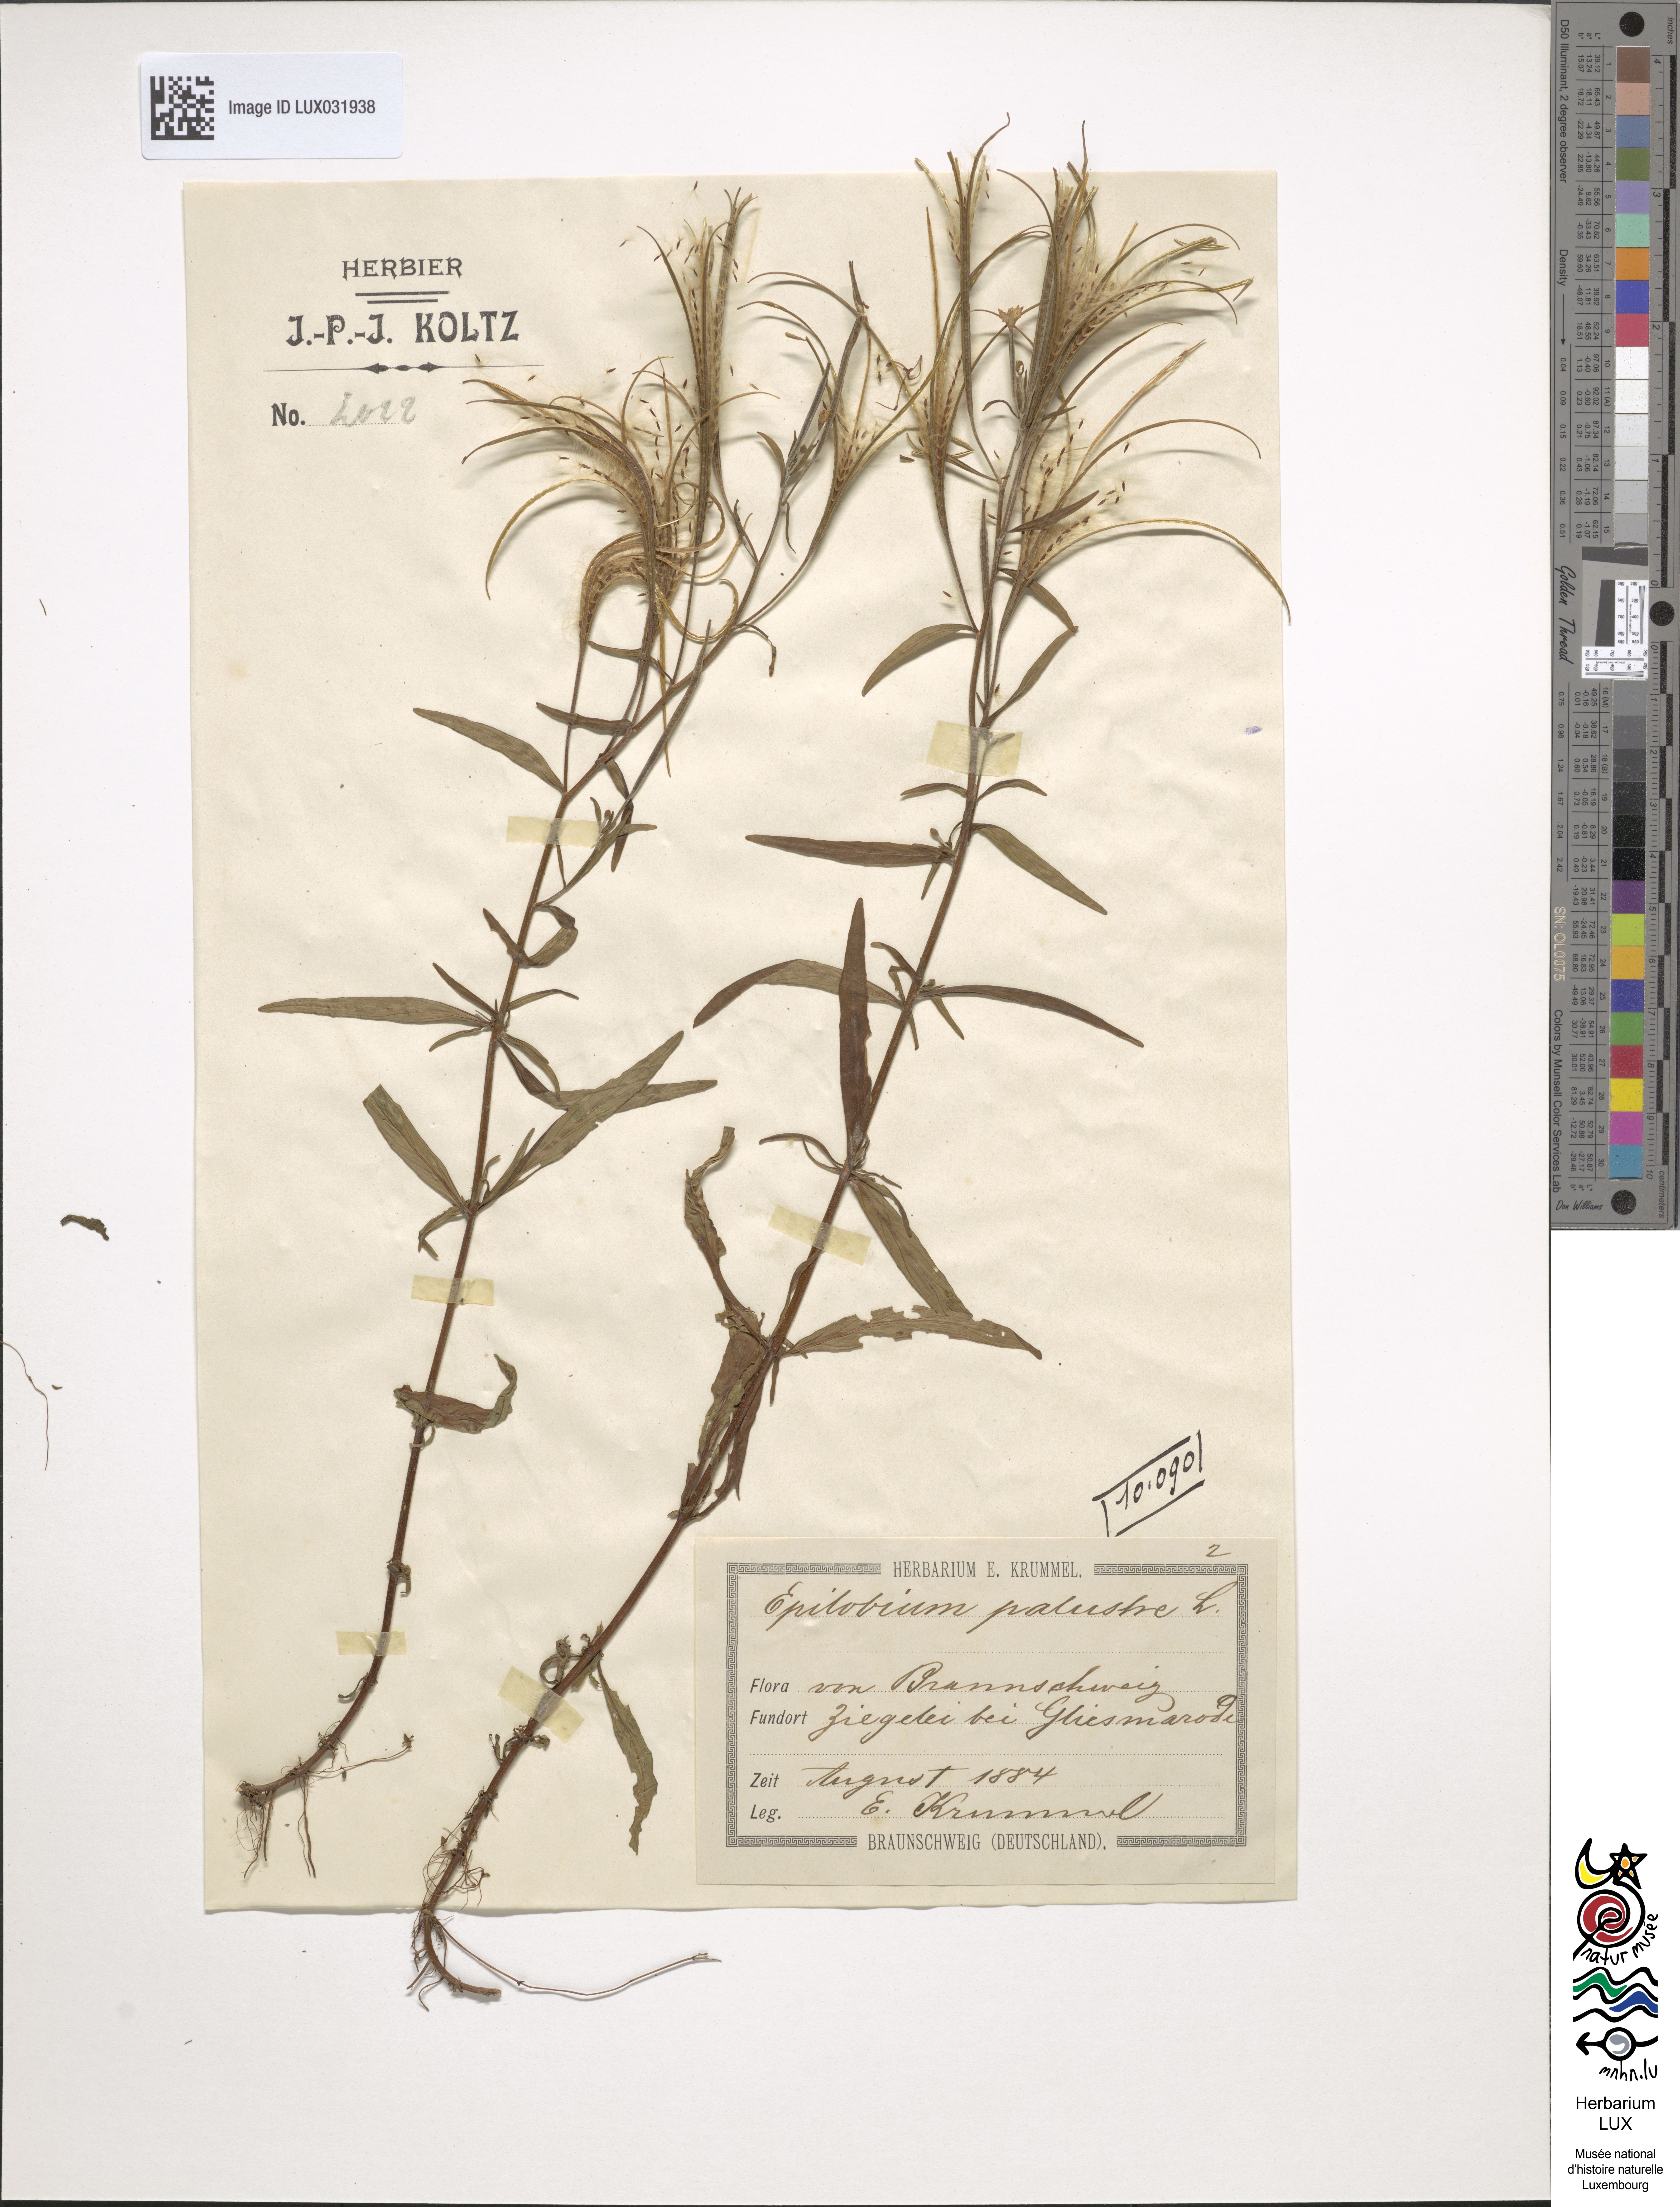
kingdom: Plantae
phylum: Tracheophyta
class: Magnoliopsida
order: Myrtales
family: Onagraceae
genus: Epilobium
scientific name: Epilobium palustre
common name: Marsh willowherb
